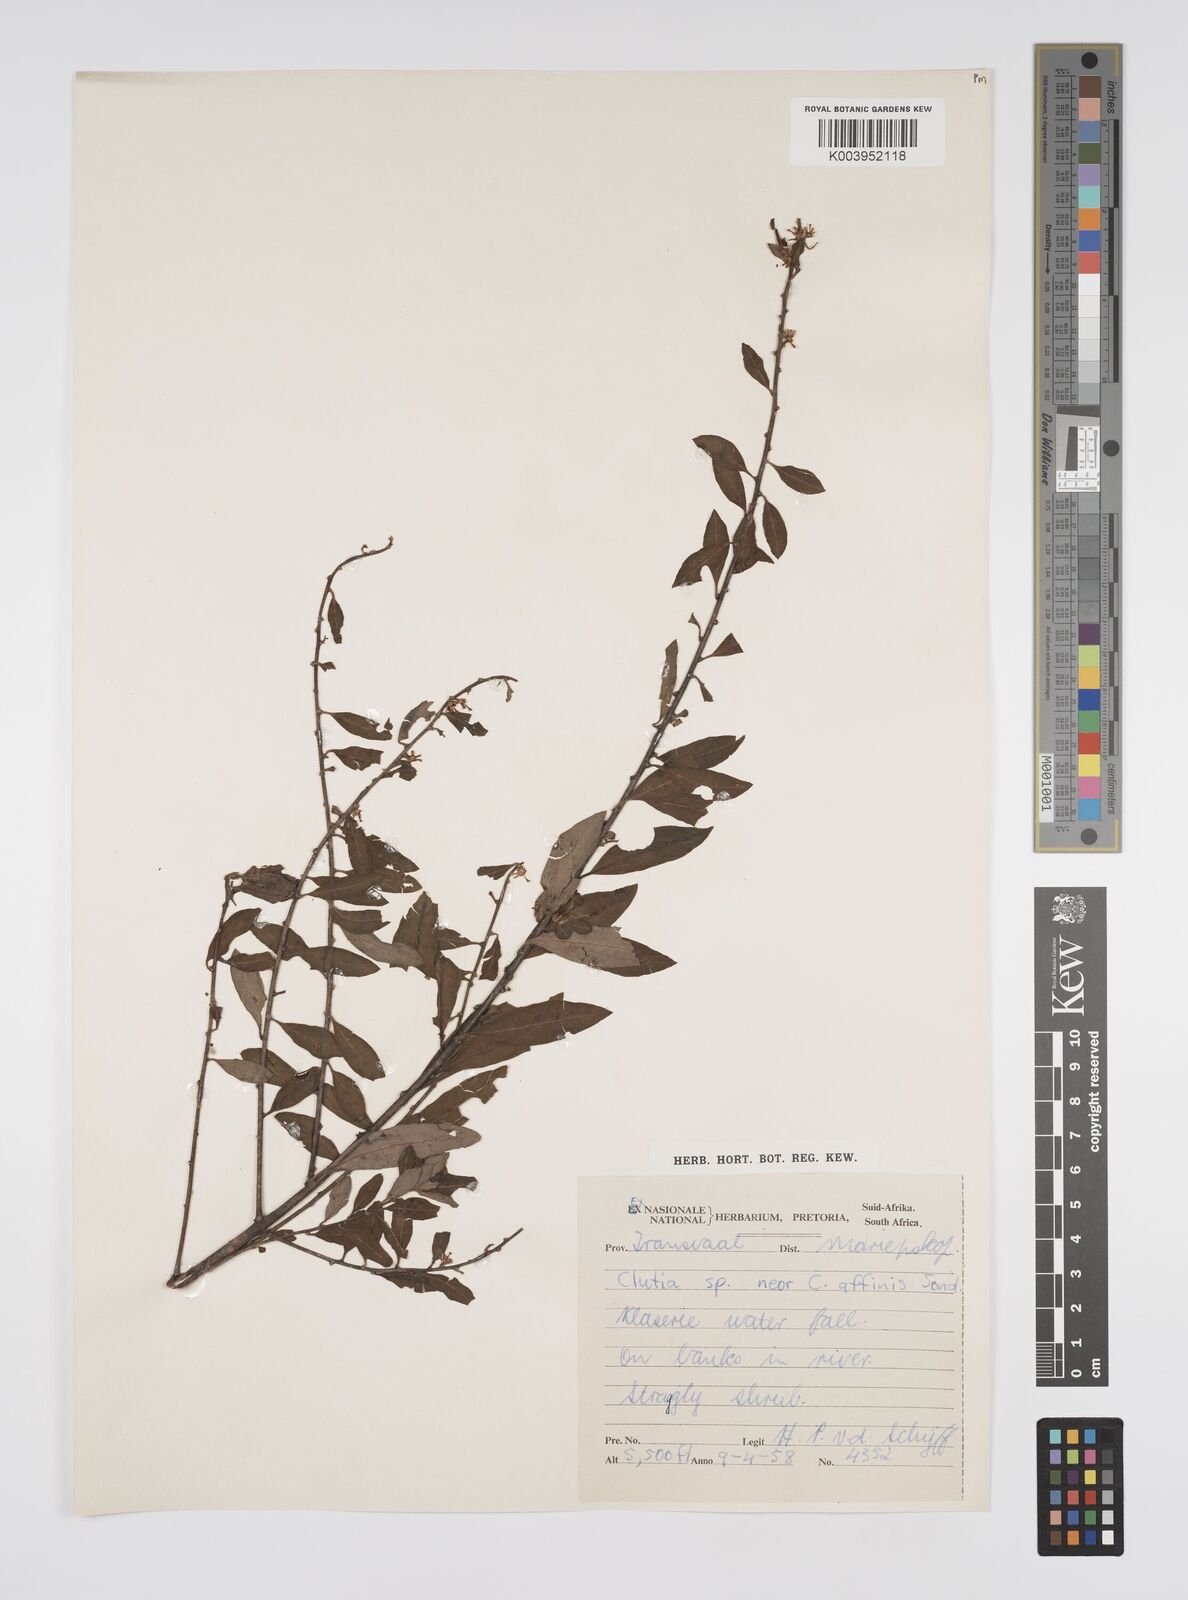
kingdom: Plantae
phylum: Tracheophyta
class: Magnoliopsida
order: Malpighiales
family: Peraceae
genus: Clutia
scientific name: Clutia affinis
